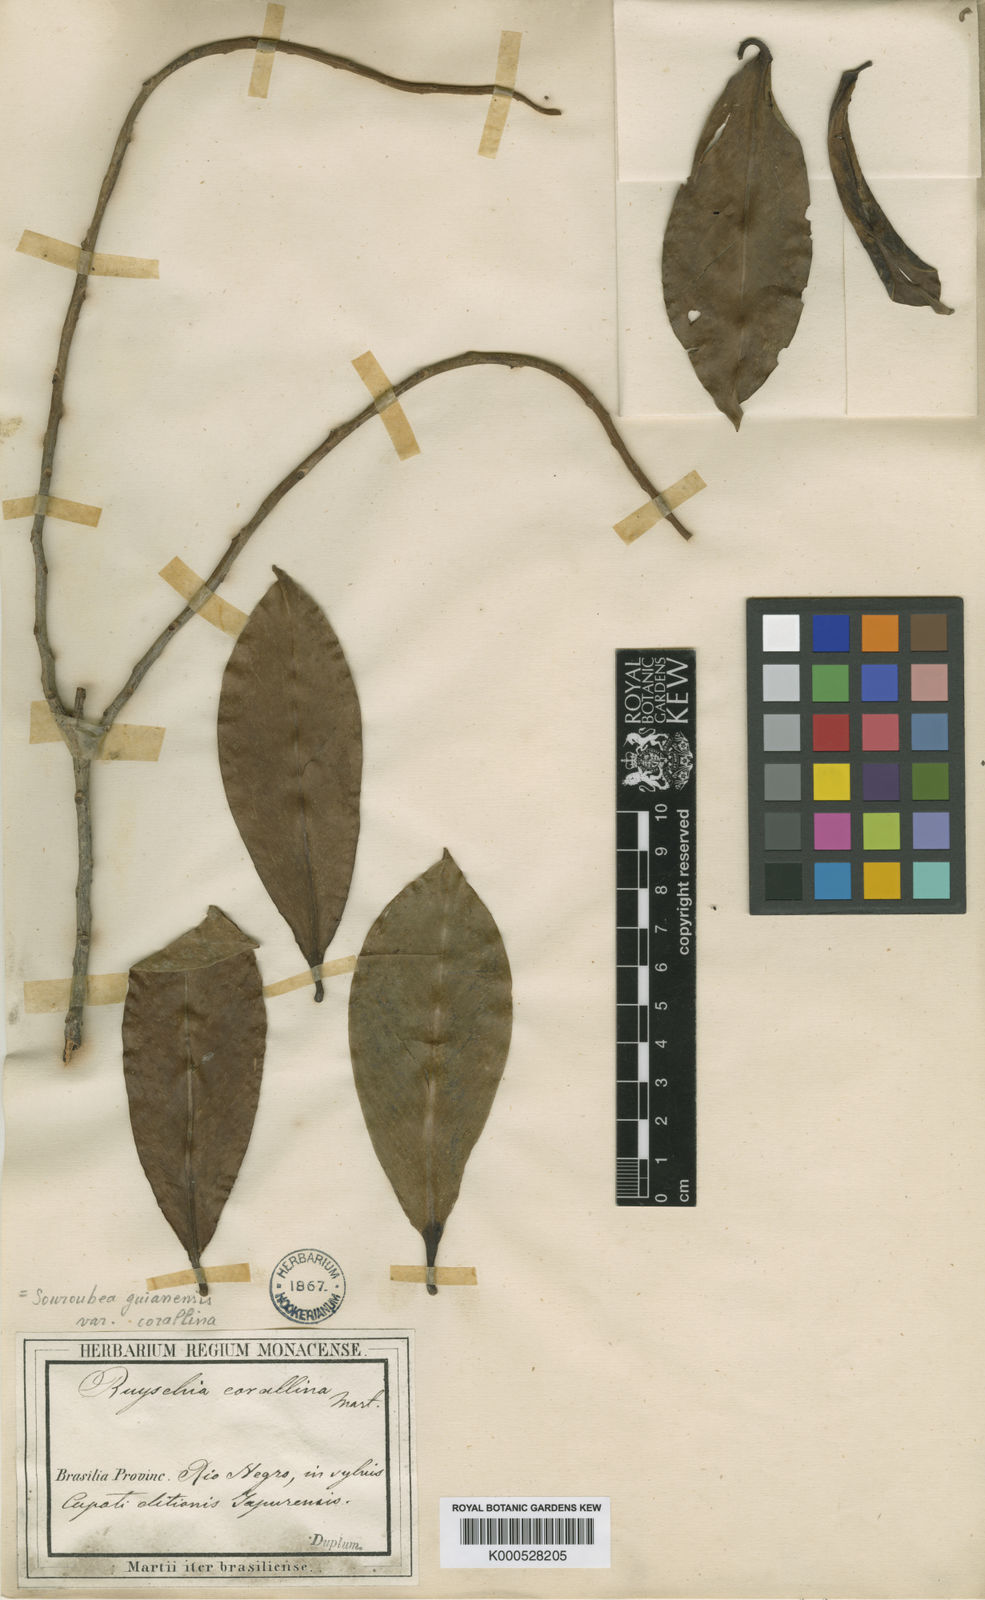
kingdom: Plantae
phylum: Tracheophyta
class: Magnoliopsida
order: Ericales
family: Marcgraviaceae
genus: Souroubea
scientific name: Souroubea corallina
